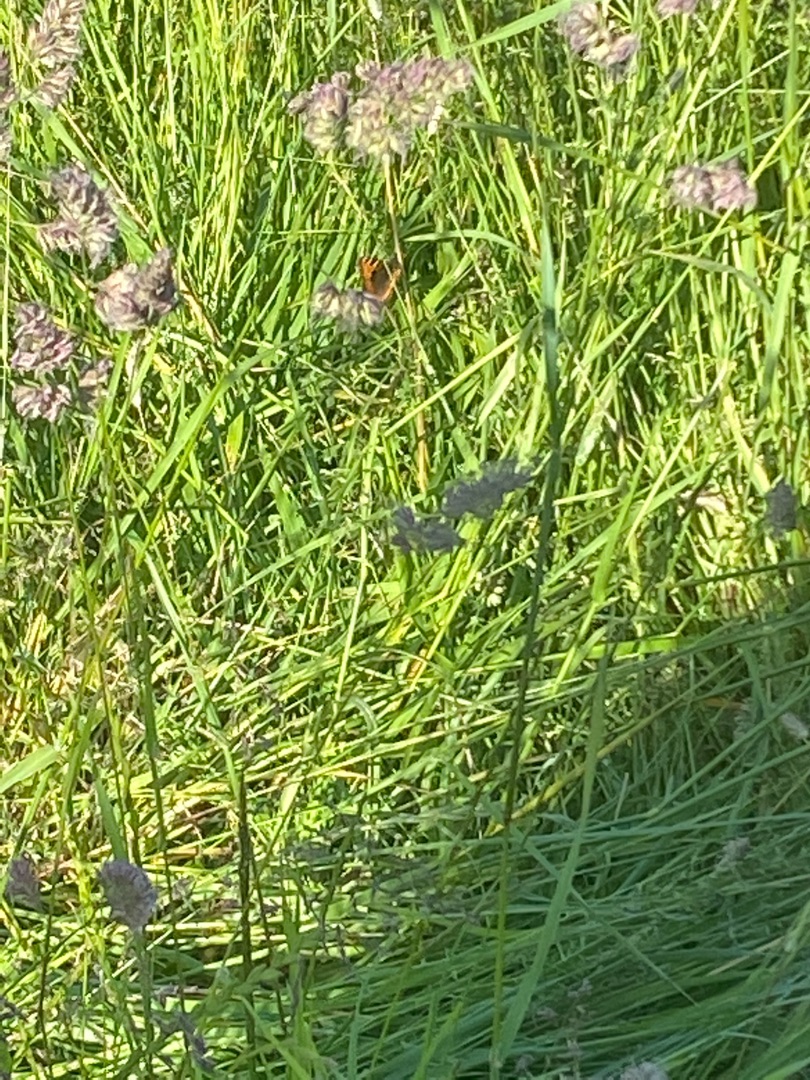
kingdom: Animalia
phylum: Arthropoda
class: Insecta
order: Lepidoptera
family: Nymphalidae
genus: Aglais
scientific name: Aglais urticae
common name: Nældens takvinge
